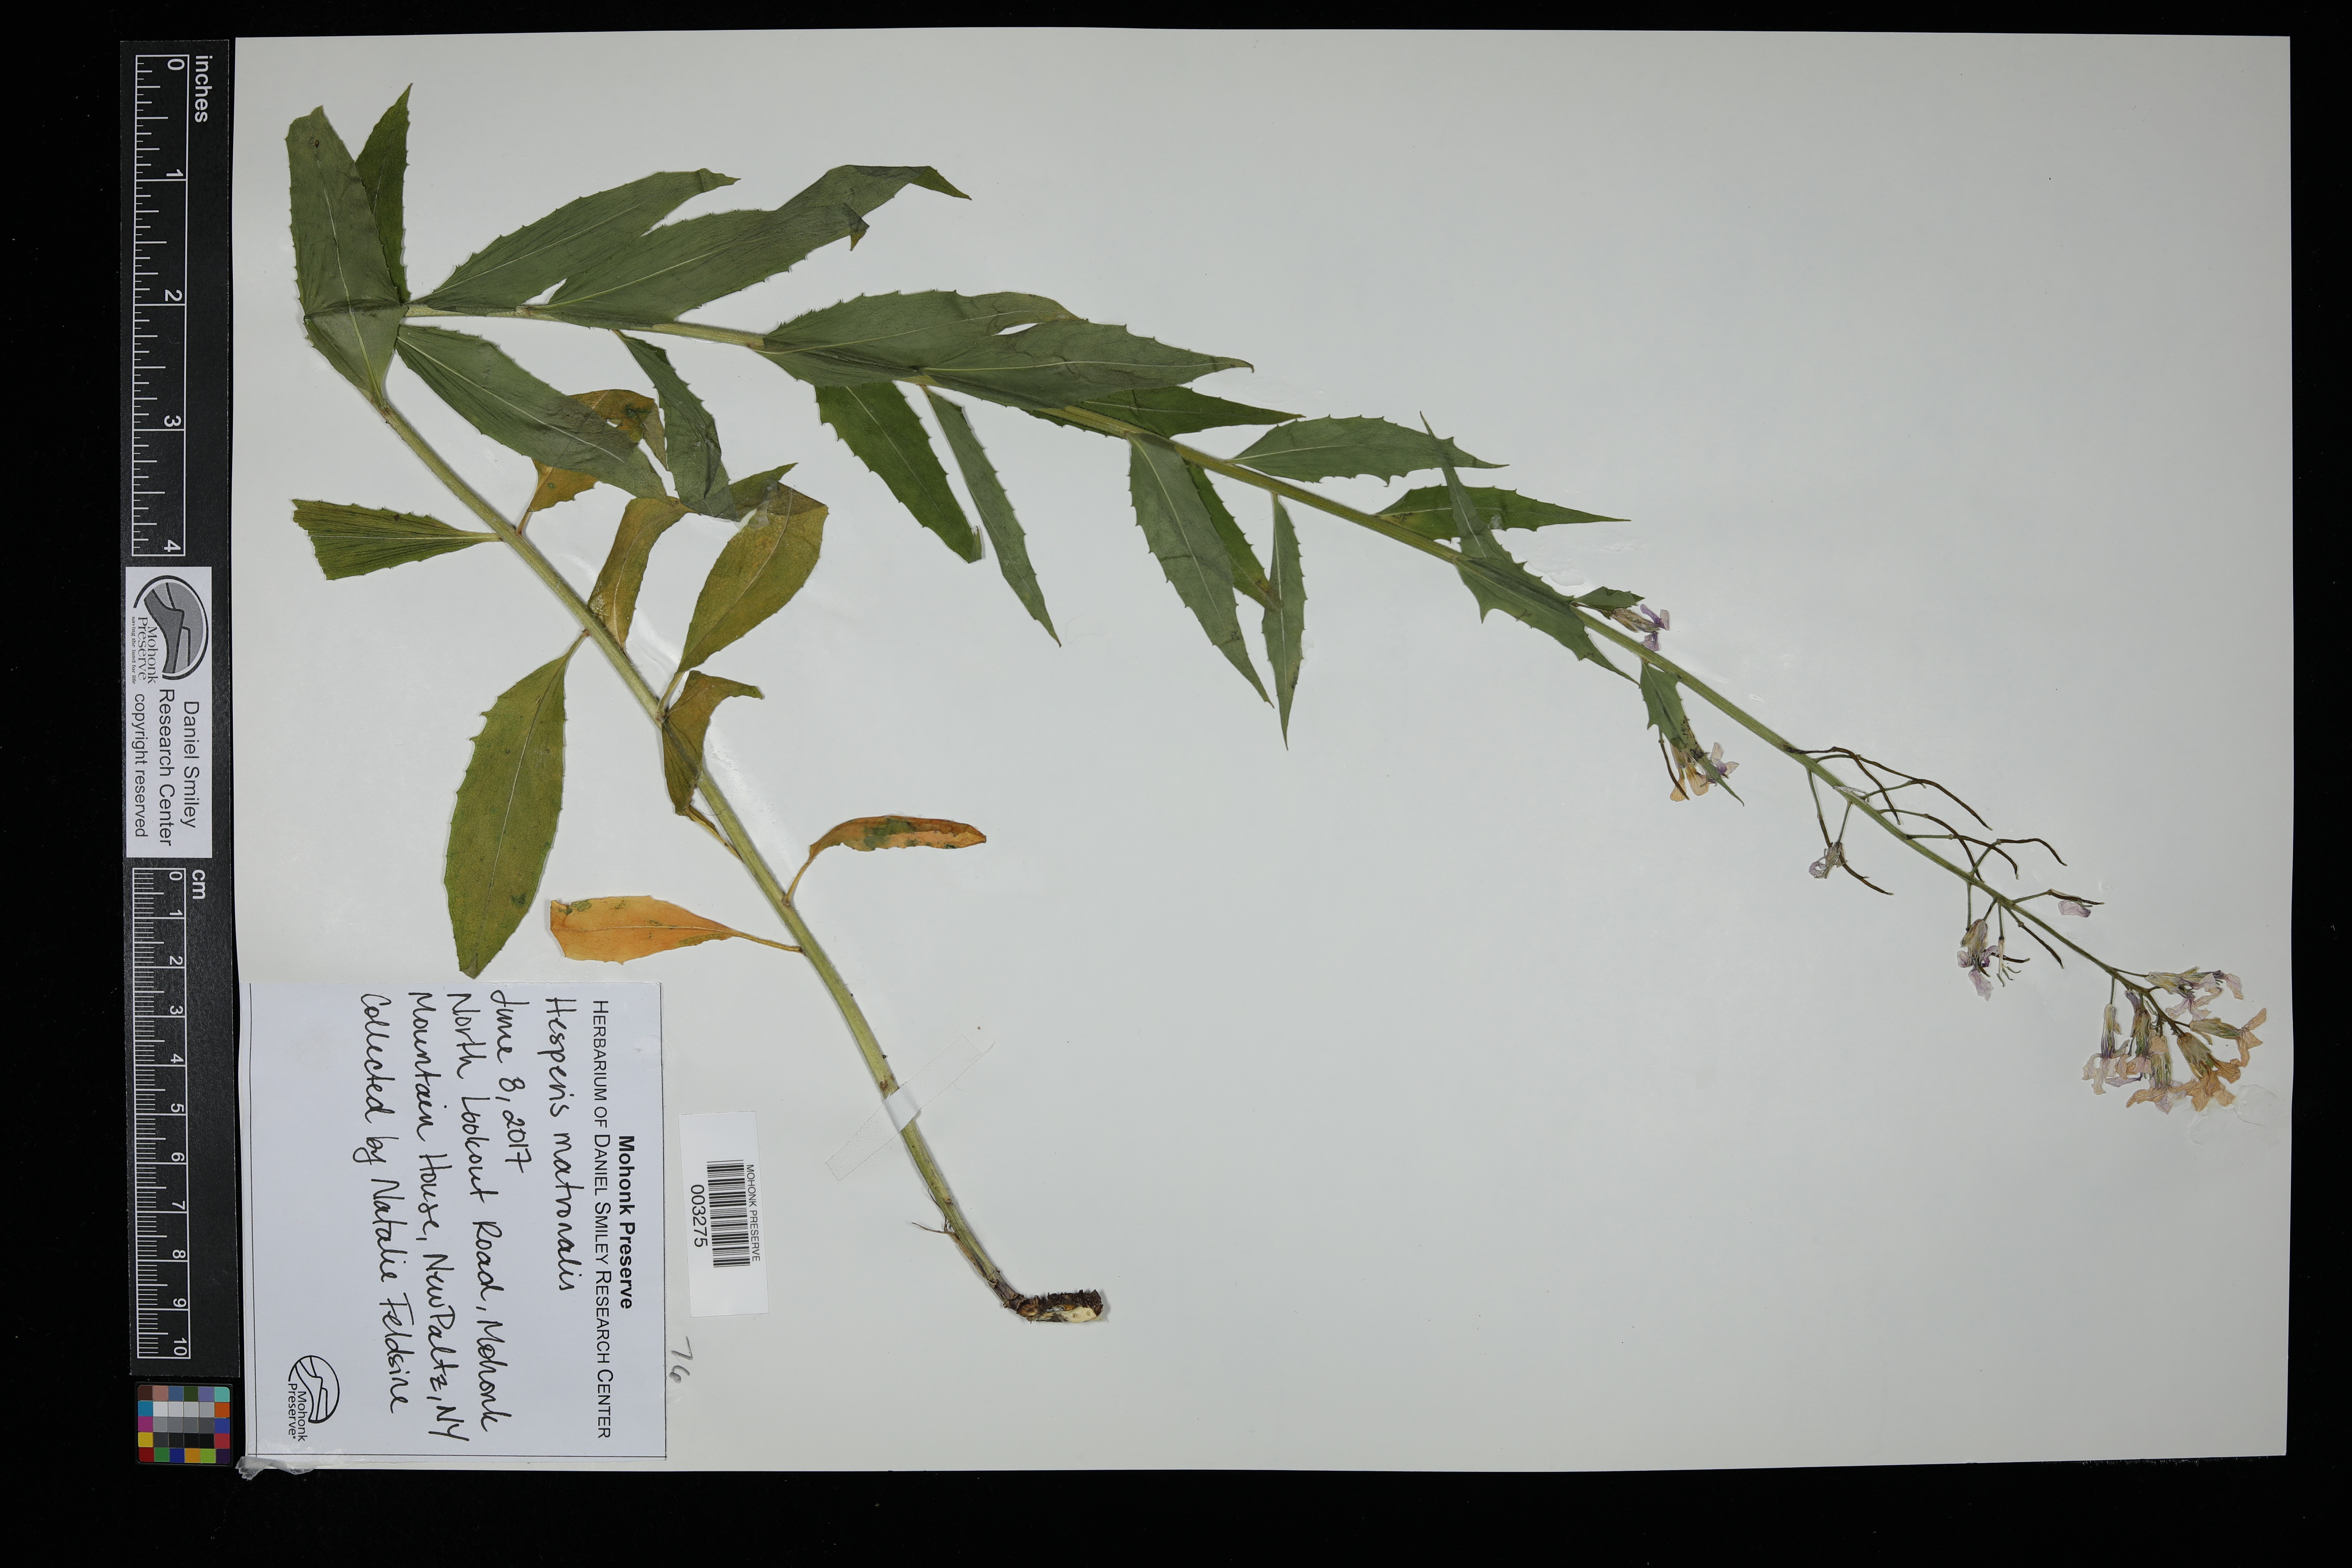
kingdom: Plantae
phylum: Tracheophyta
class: Magnoliopsida
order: Brassicales
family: Brassicaceae
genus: Hesperis
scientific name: Hesperis matronalis
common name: Dame's-violet
